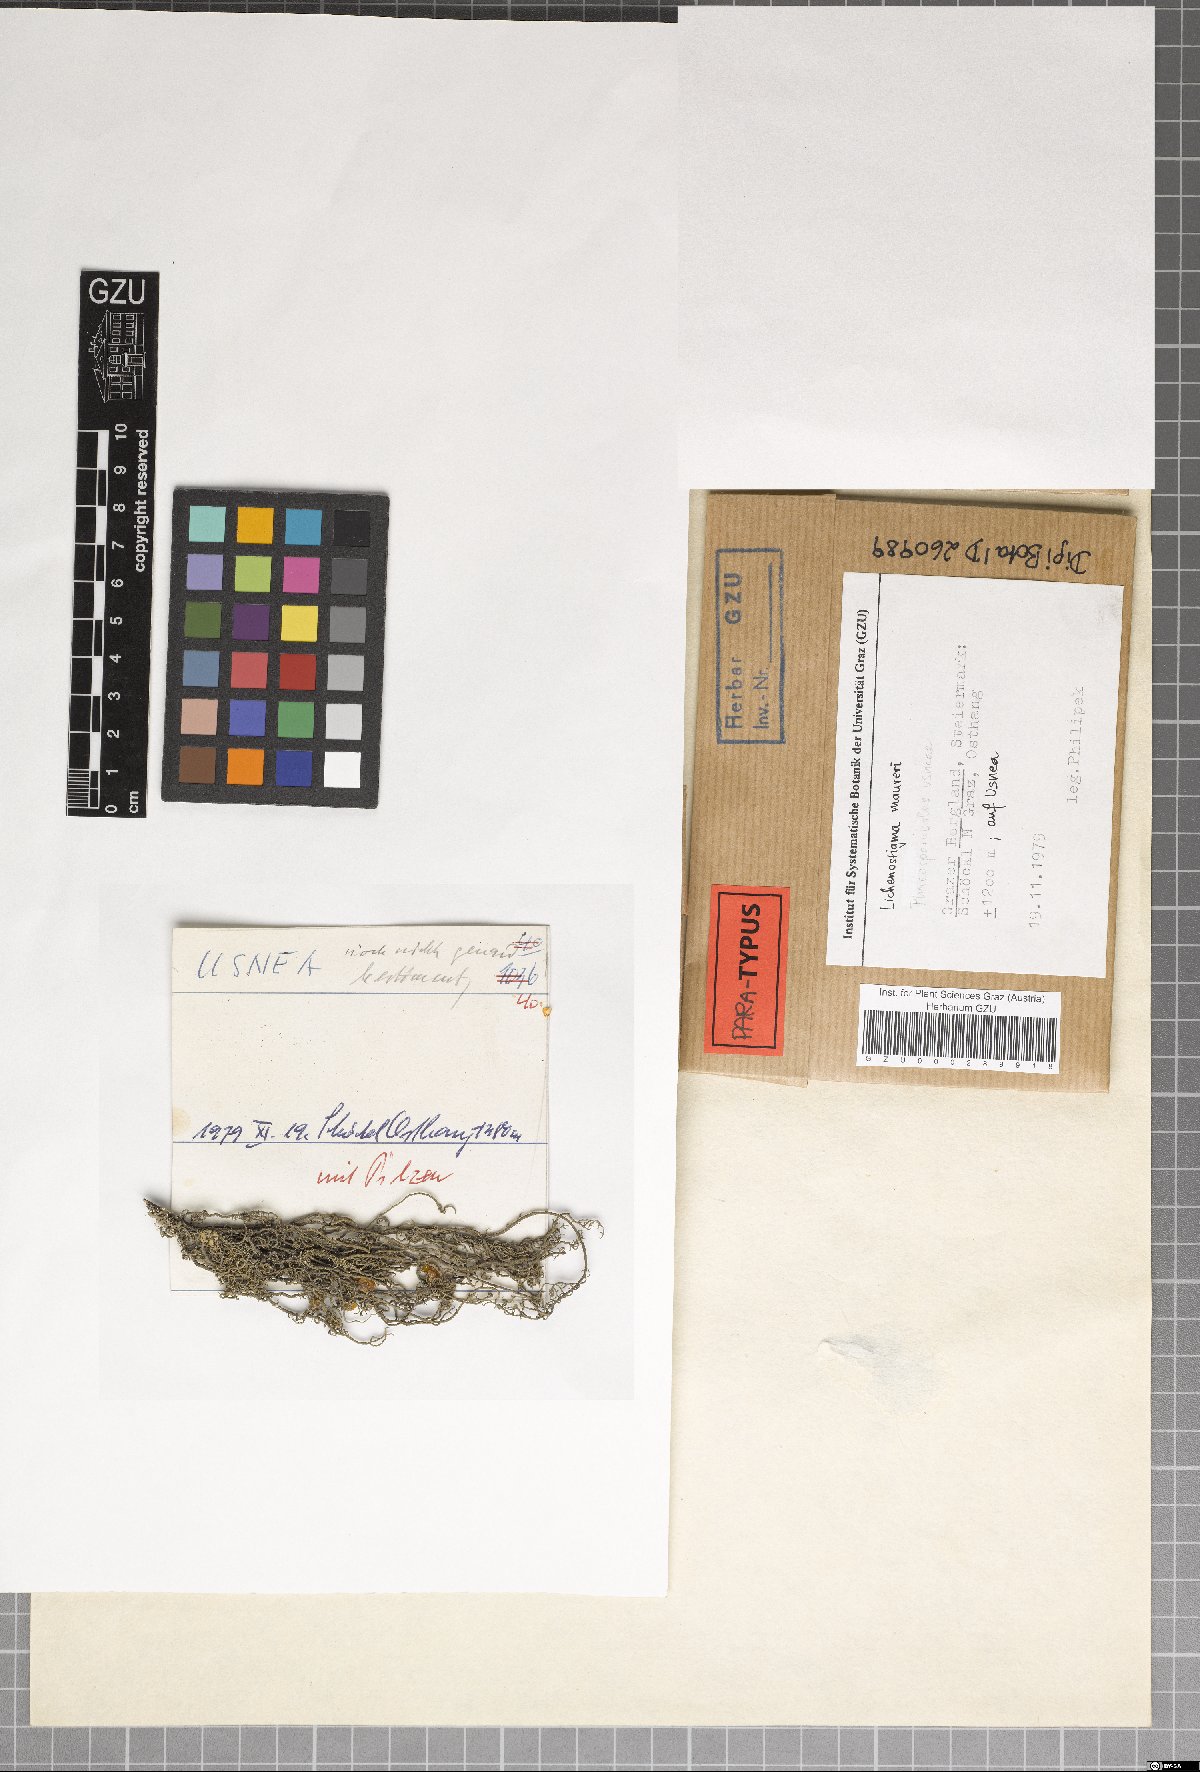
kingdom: Fungi
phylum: Ascomycota
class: Arthoniomycetes
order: Lichenostigmatales
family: Phaeococcomycetaceae
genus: Lichenostigma
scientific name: Lichenostigma maureri
